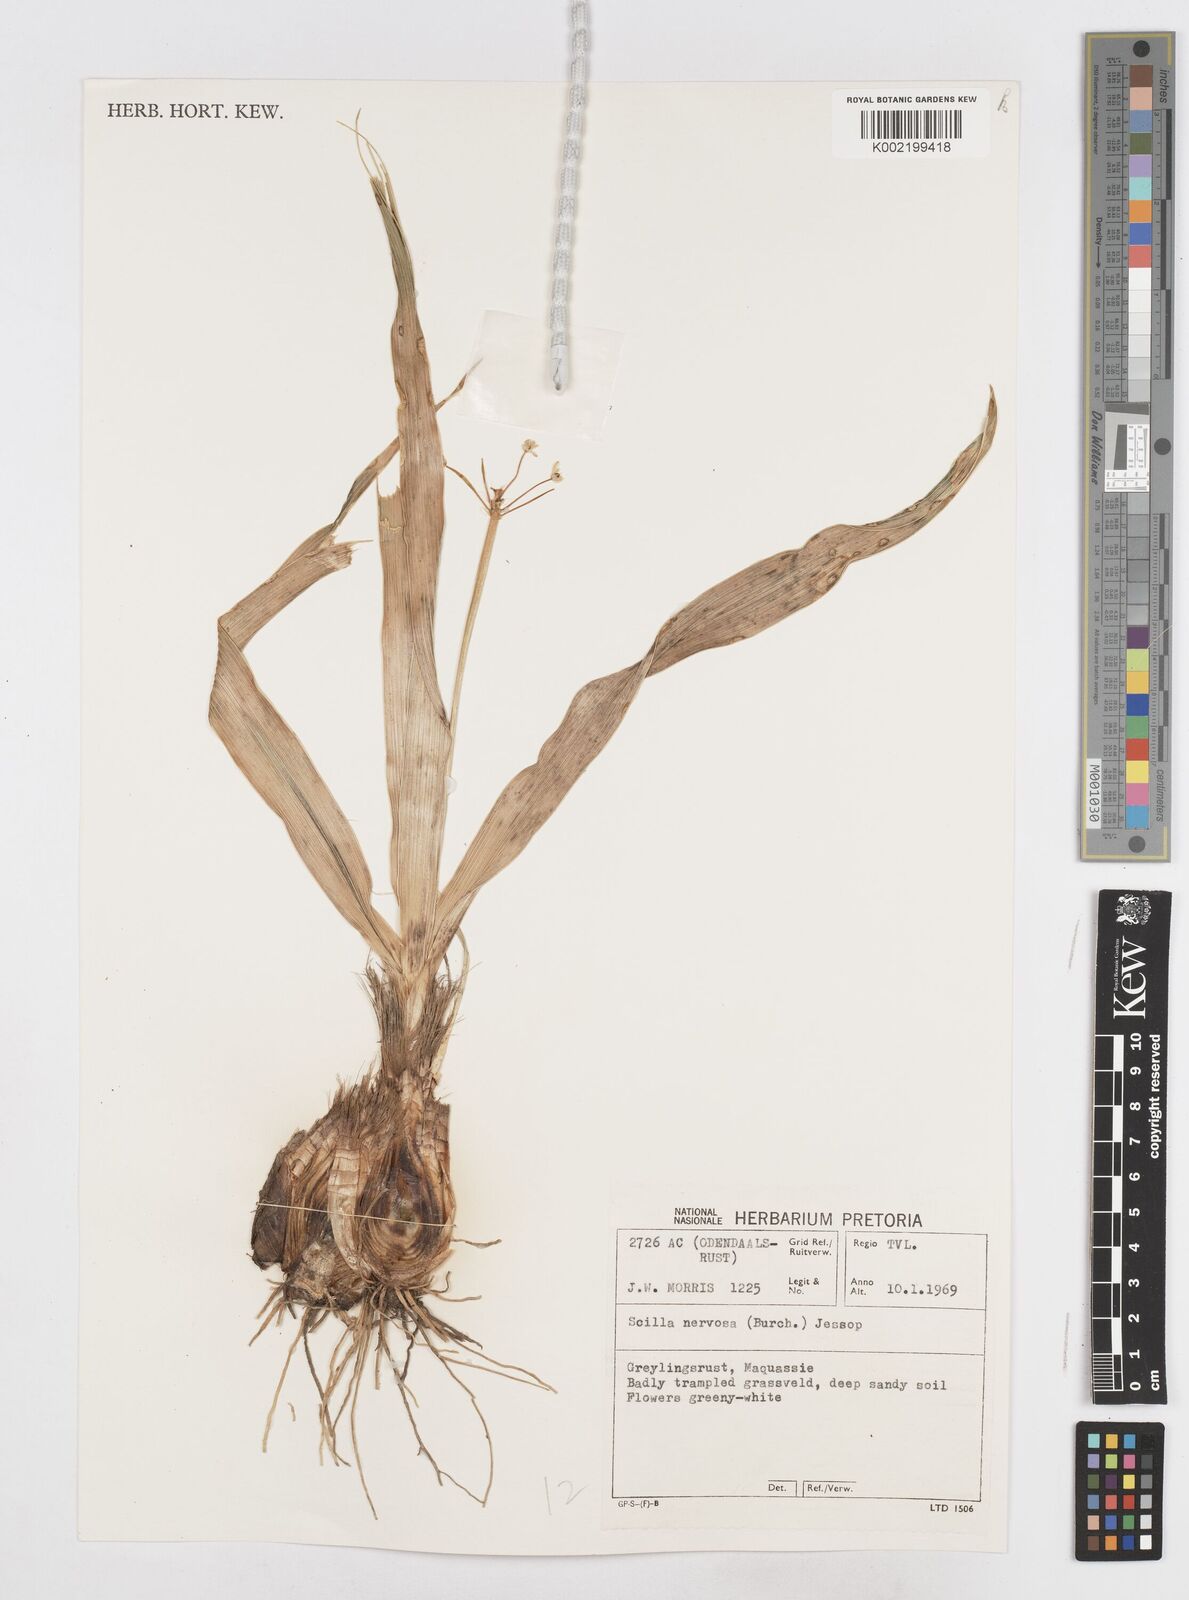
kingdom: Plantae
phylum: Tracheophyta
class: Liliopsida
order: Asparagales
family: Asparagaceae
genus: Schizocarphus
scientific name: Schizocarphus nervosus
